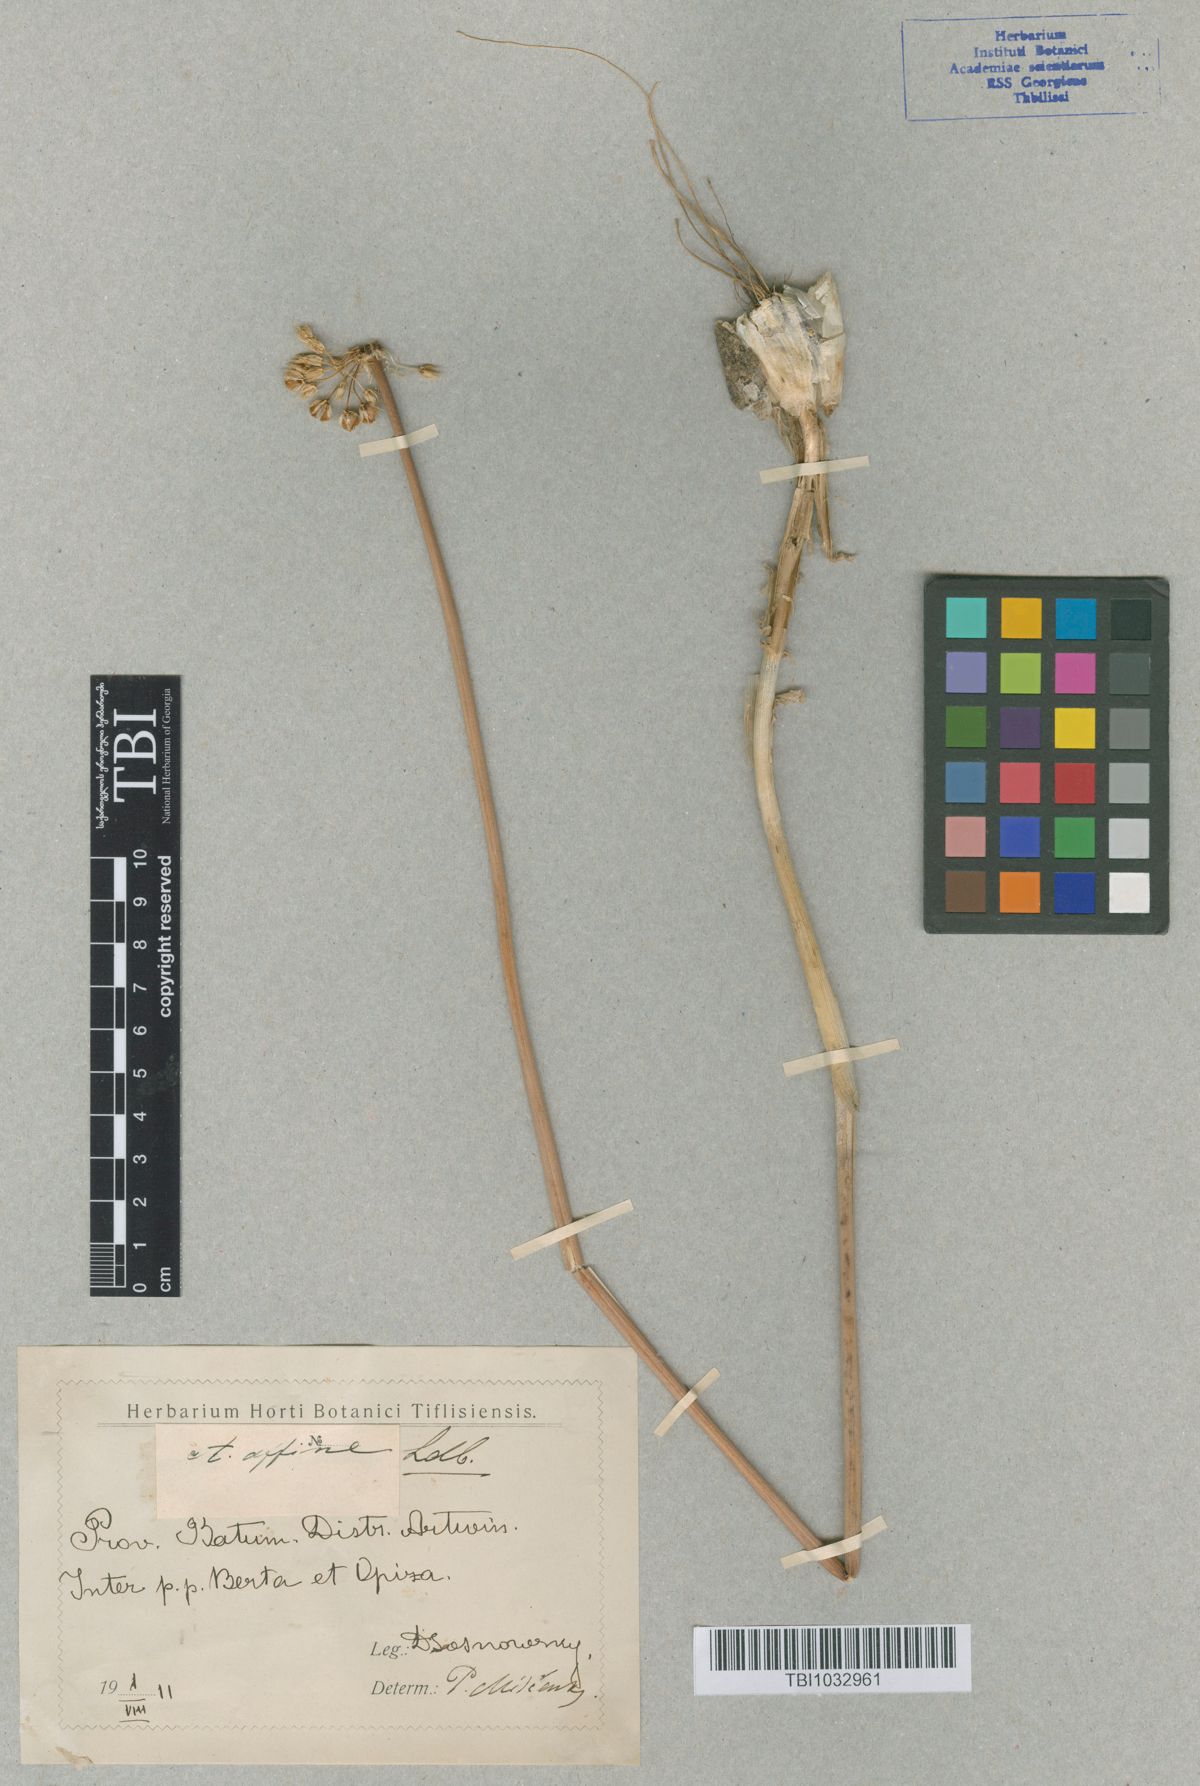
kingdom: Plantae
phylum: Tracheophyta
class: Liliopsida
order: Asparagales
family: Amaryllidaceae
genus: Allium
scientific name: Allium affine
